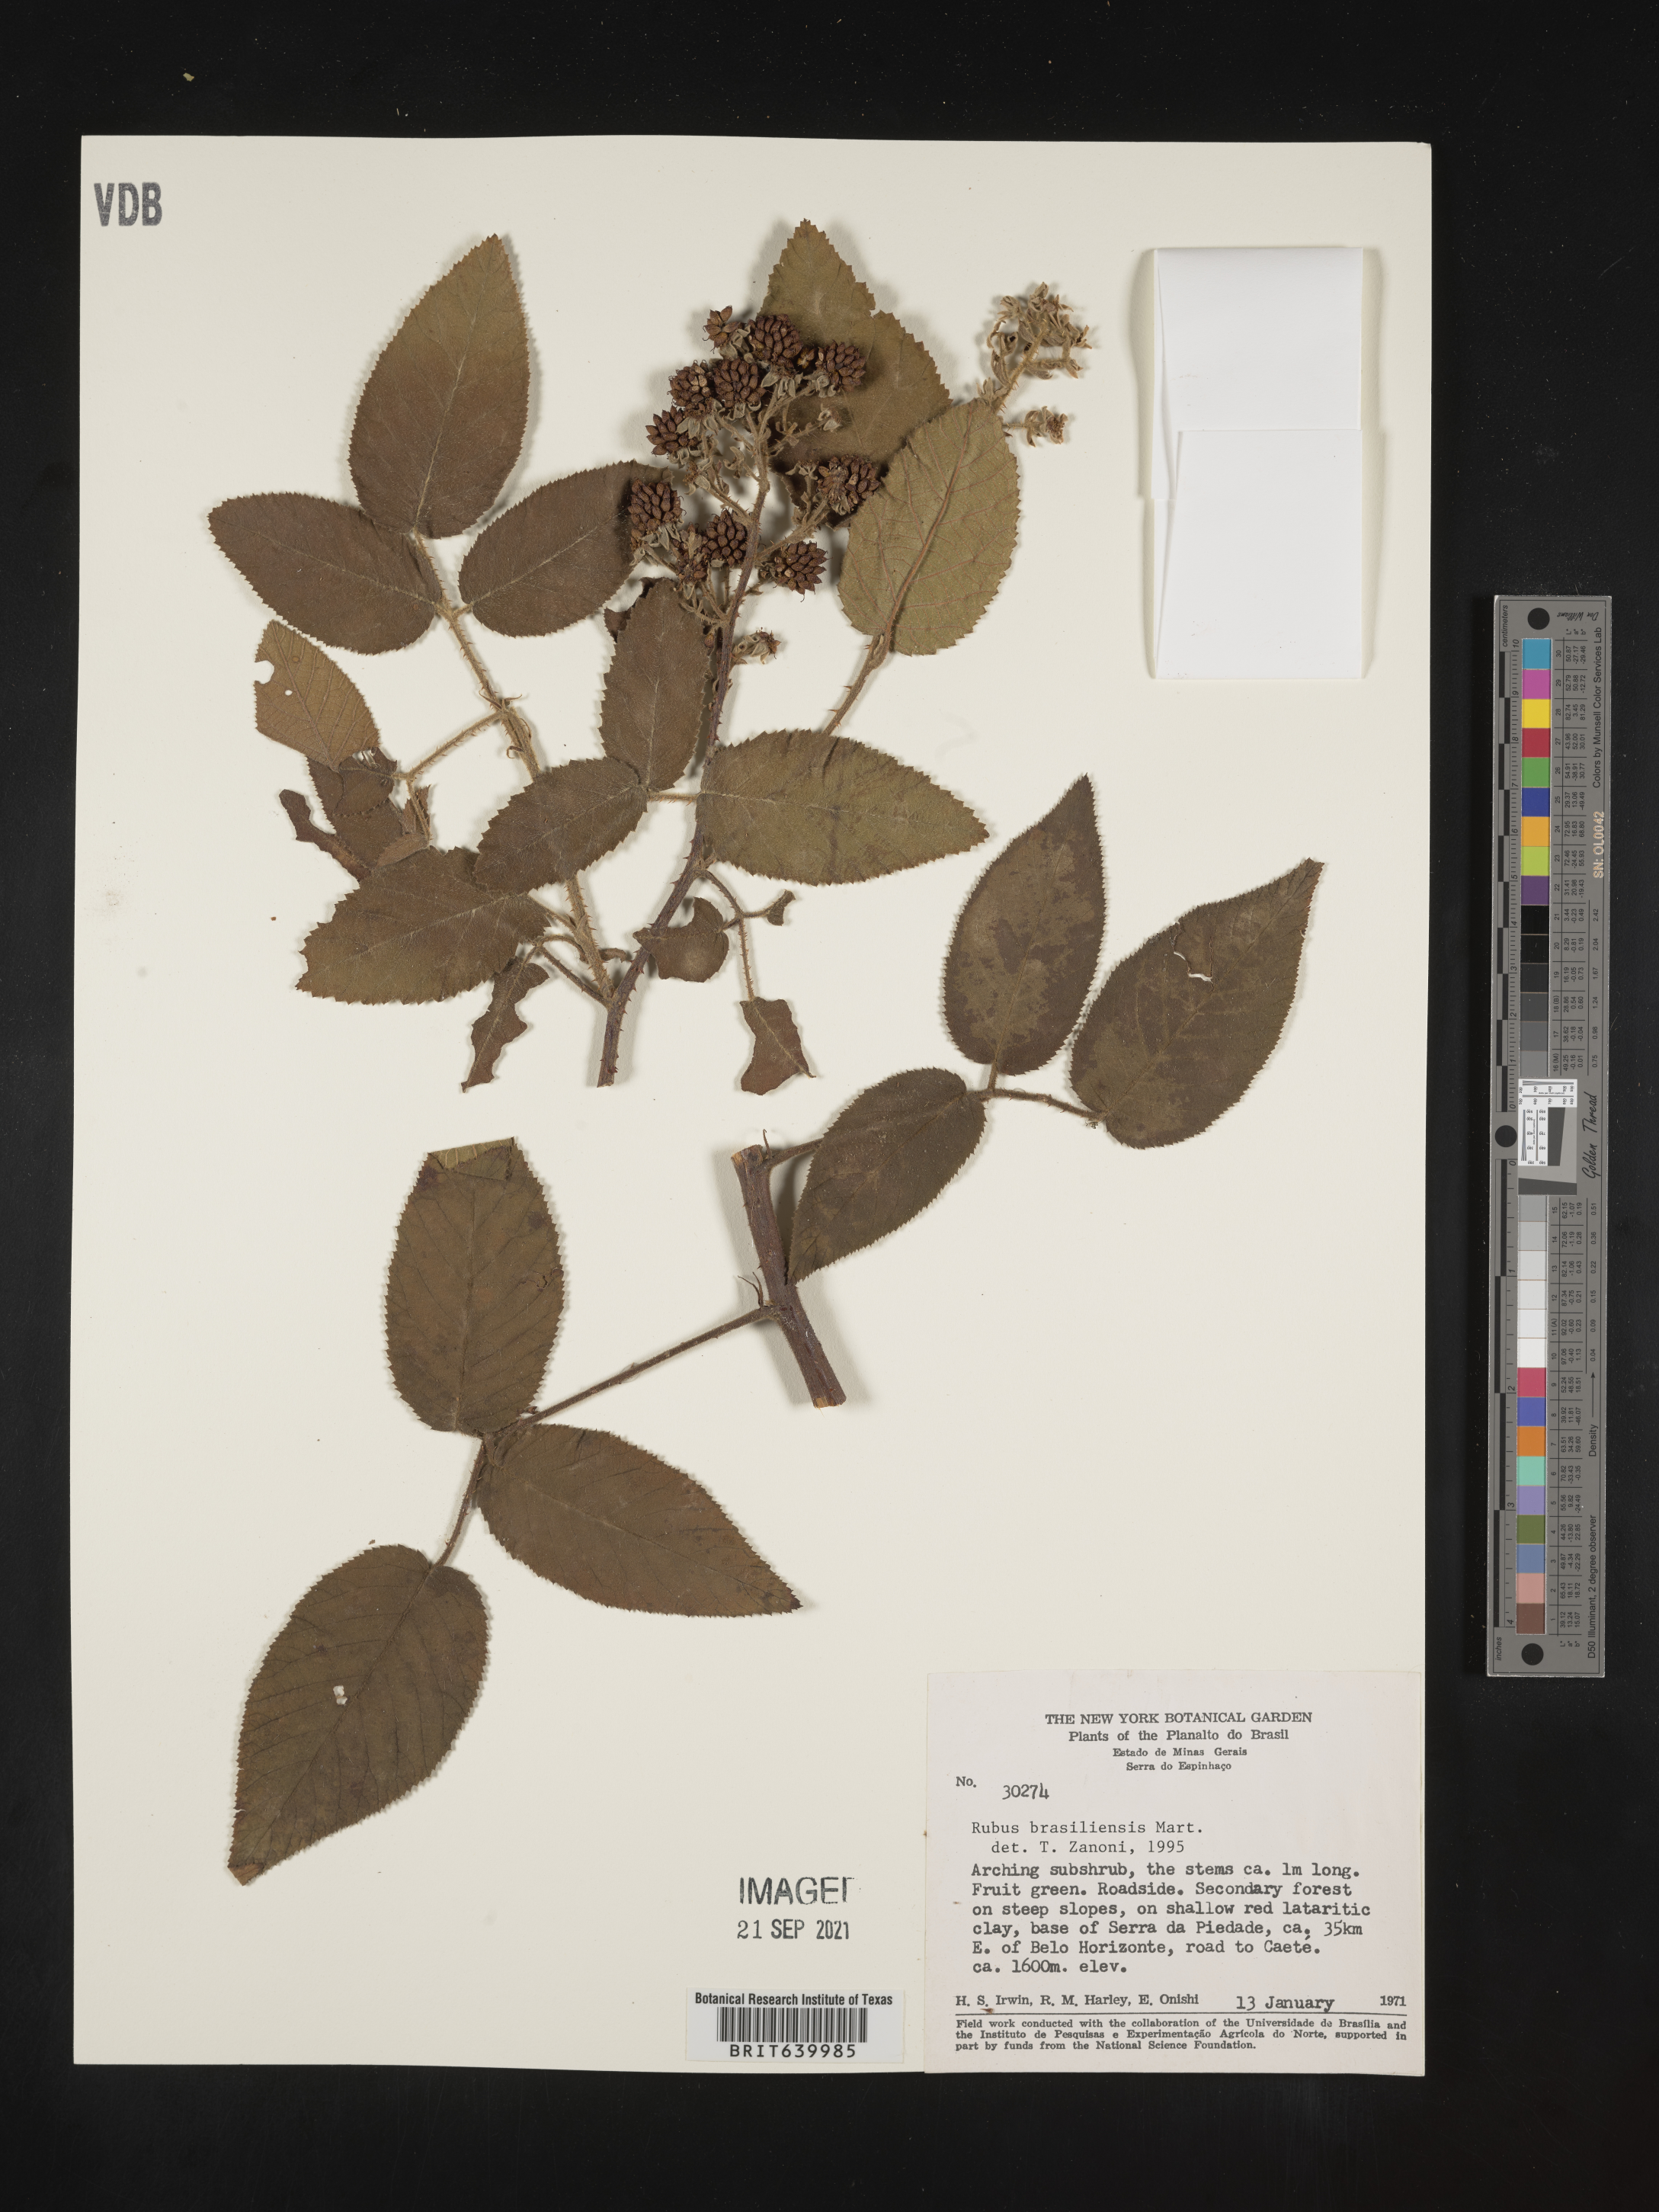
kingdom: Plantae
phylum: Tracheophyta
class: Magnoliopsida
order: Rosales
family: Rosaceae
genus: Rubus
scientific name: Rubus
